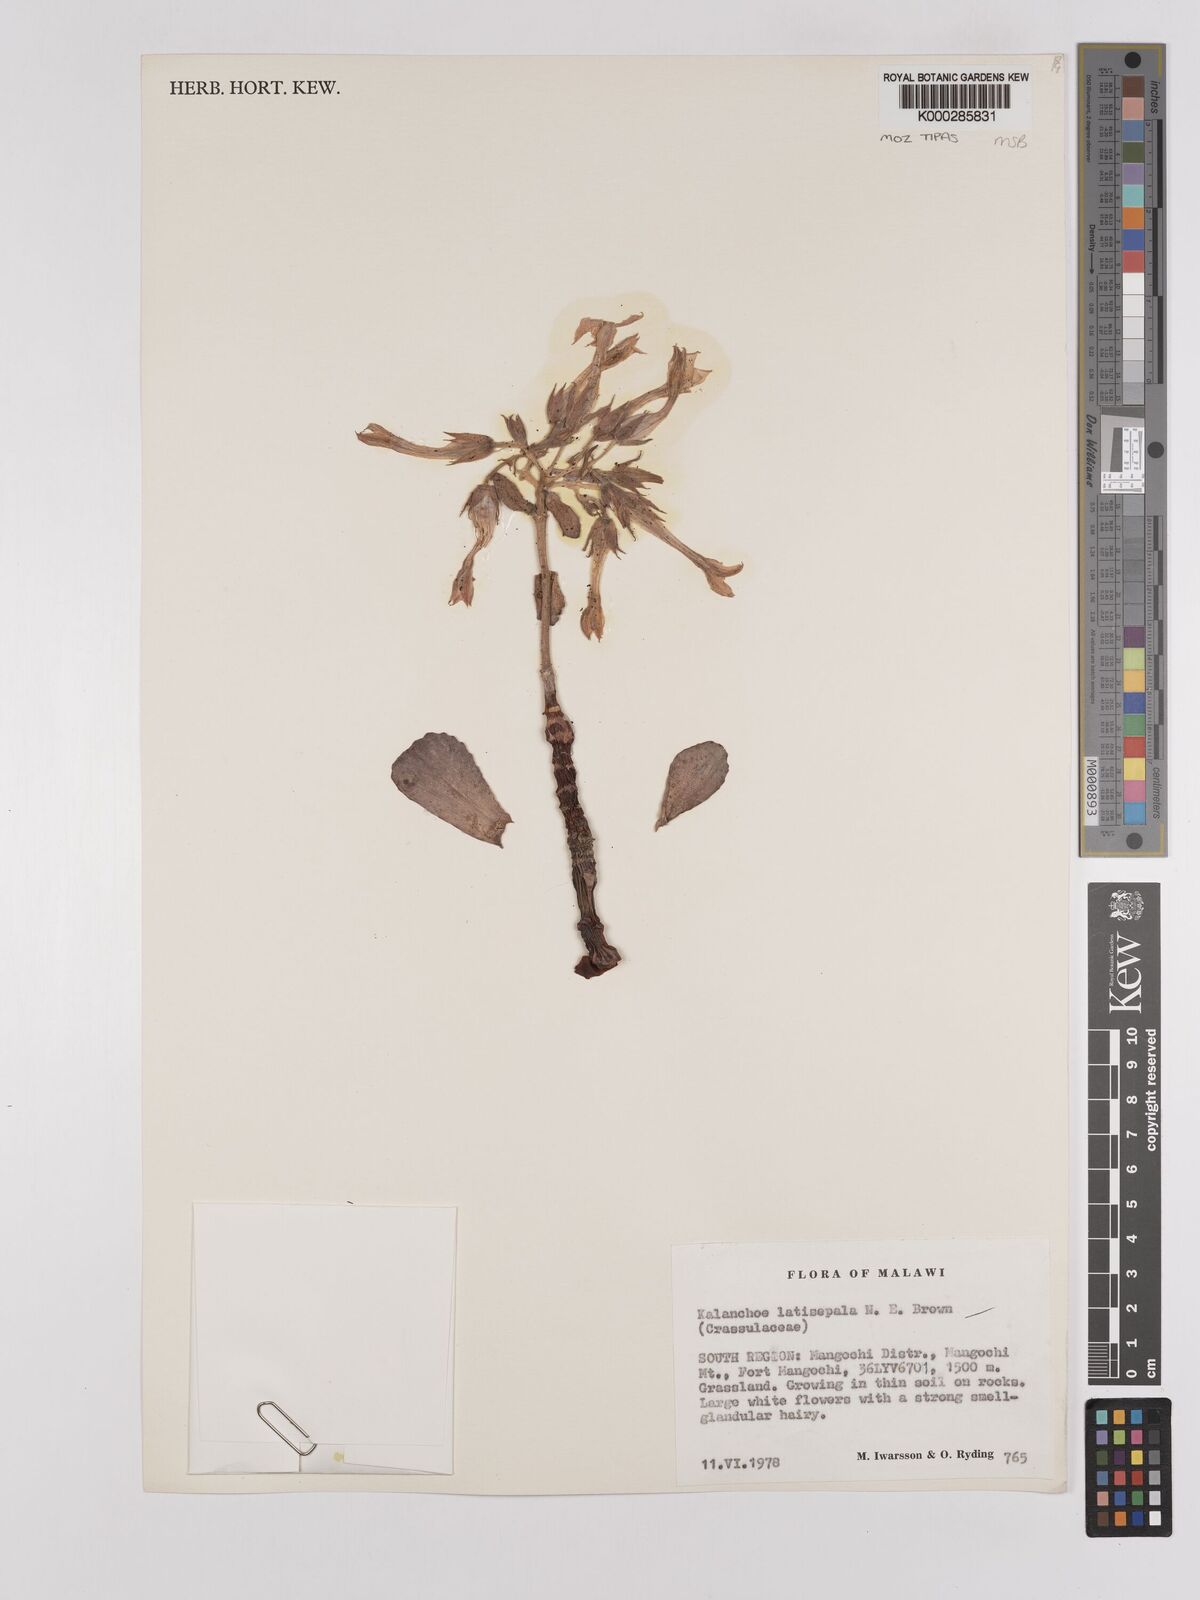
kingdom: Plantae
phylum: Tracheophyta
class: Magnoliopsida
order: Saxifragales
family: Crassulaceae
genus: Kalanchoe
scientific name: Kalanchoe latisepala
